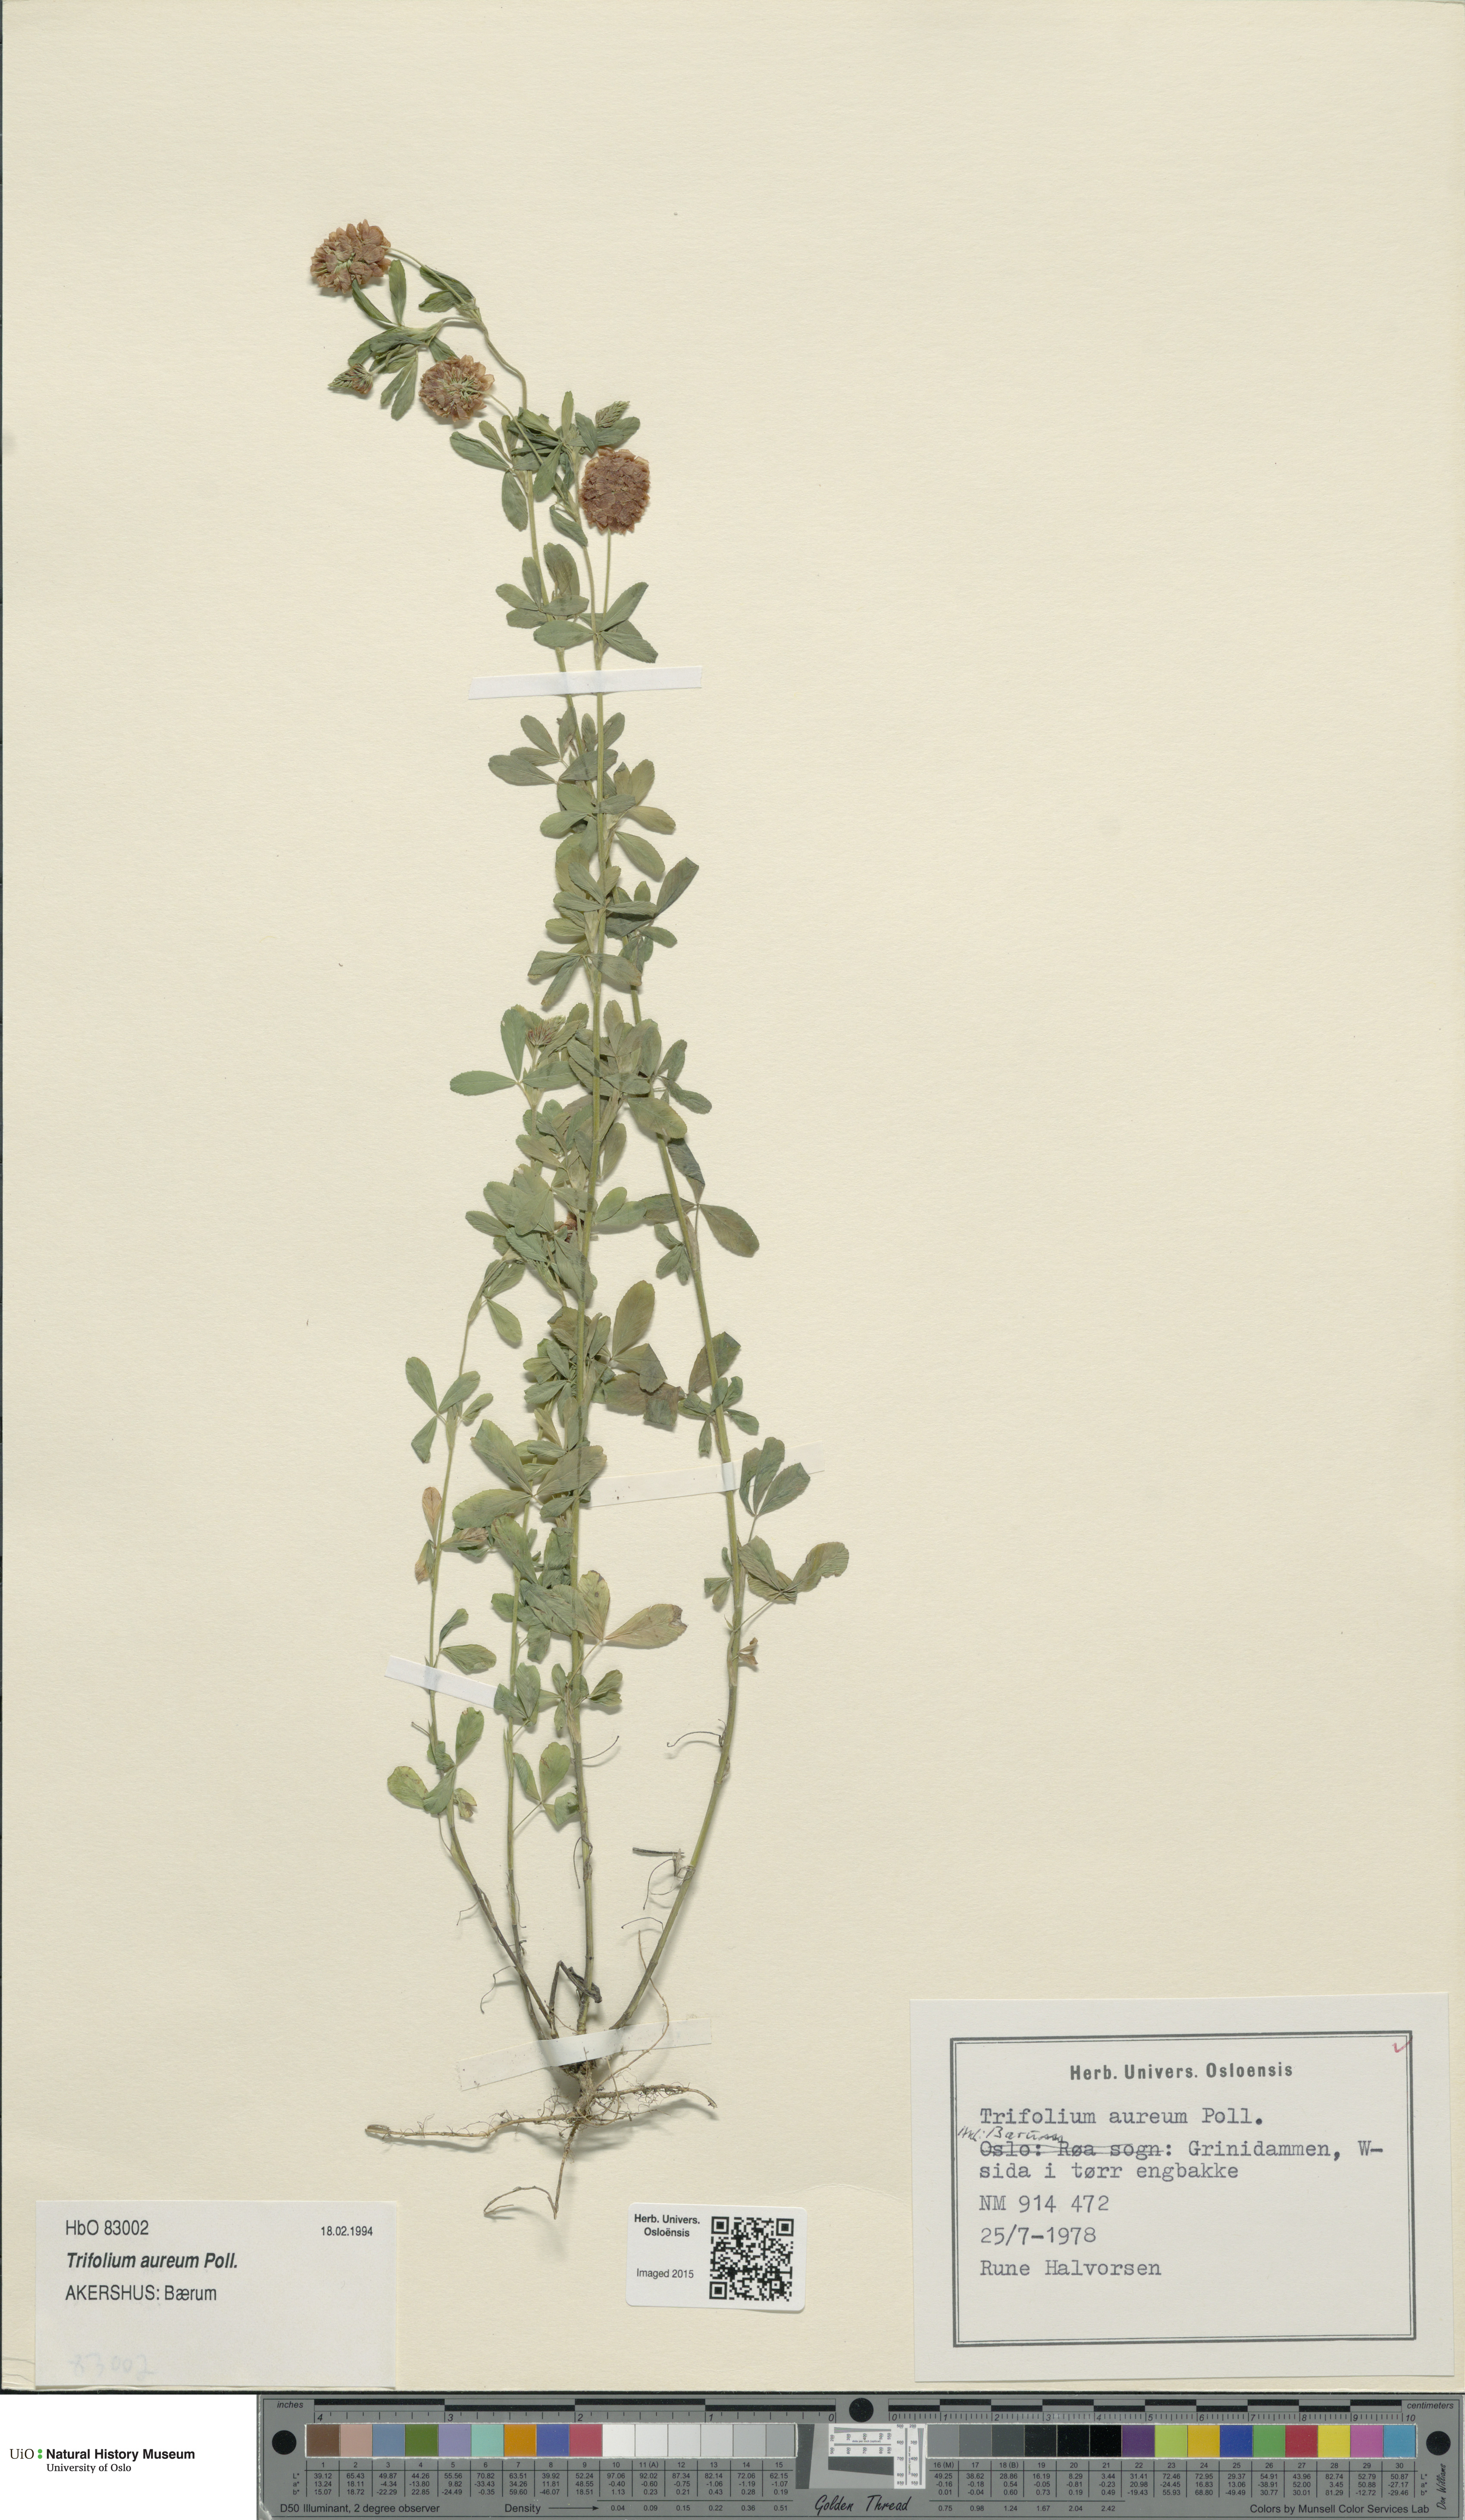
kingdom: Plantae
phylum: Tracheophyta
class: Magnoliopsida
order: Fabales
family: Fabaceae
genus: Trifolium
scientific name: Trifolium aureum
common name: Golden clover
